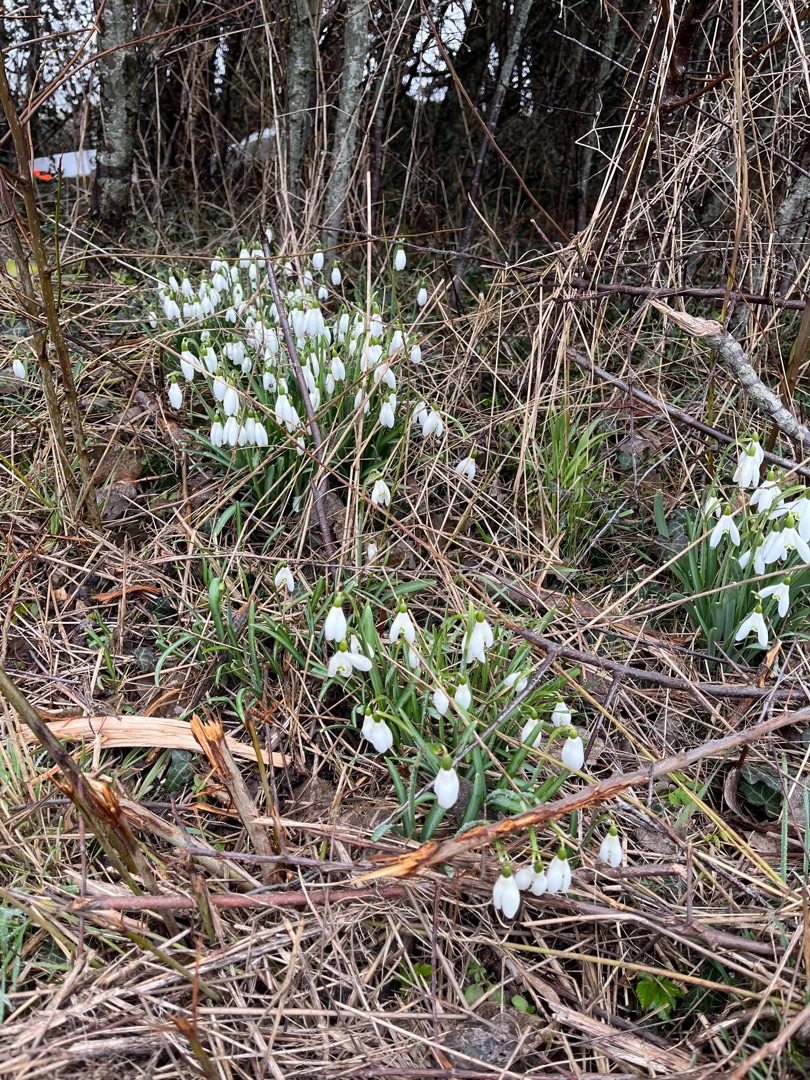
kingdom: Plantae
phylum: Tracheophyta
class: Liliopsida
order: Asparagales
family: Amaryllidaceae
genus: Galanthus
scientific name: Galanthus nivalis
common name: Vintergæk
